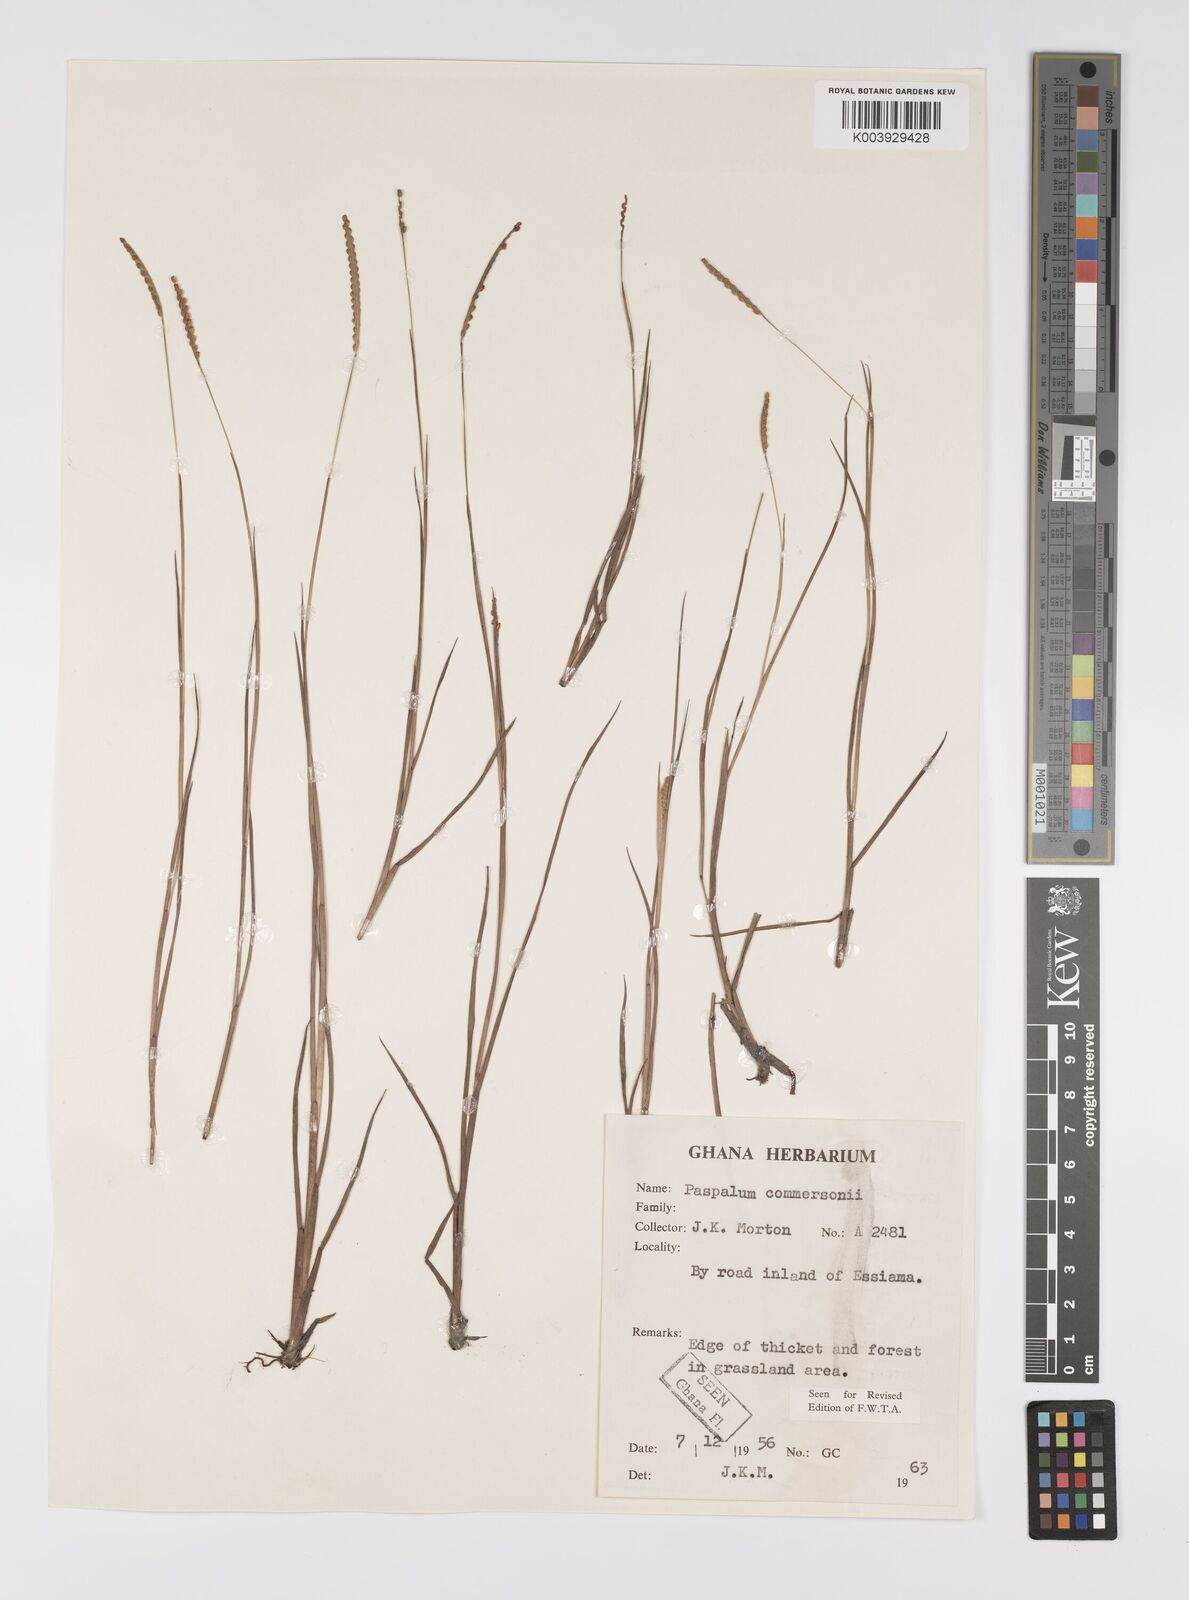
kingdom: Plantae
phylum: Tracheophyta
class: Liliopsida
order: Poales
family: Poaceae
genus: Paspalum
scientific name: Paspalum scrobiculatum
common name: Kodo millet
